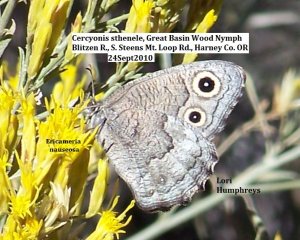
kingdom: Animalia
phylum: Arthropoda
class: Insecta
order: Lepidoptera
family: Nymphalidae
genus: Cercyonis
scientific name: Cercyonis sthenele
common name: Great Basin Wood-Nymph
